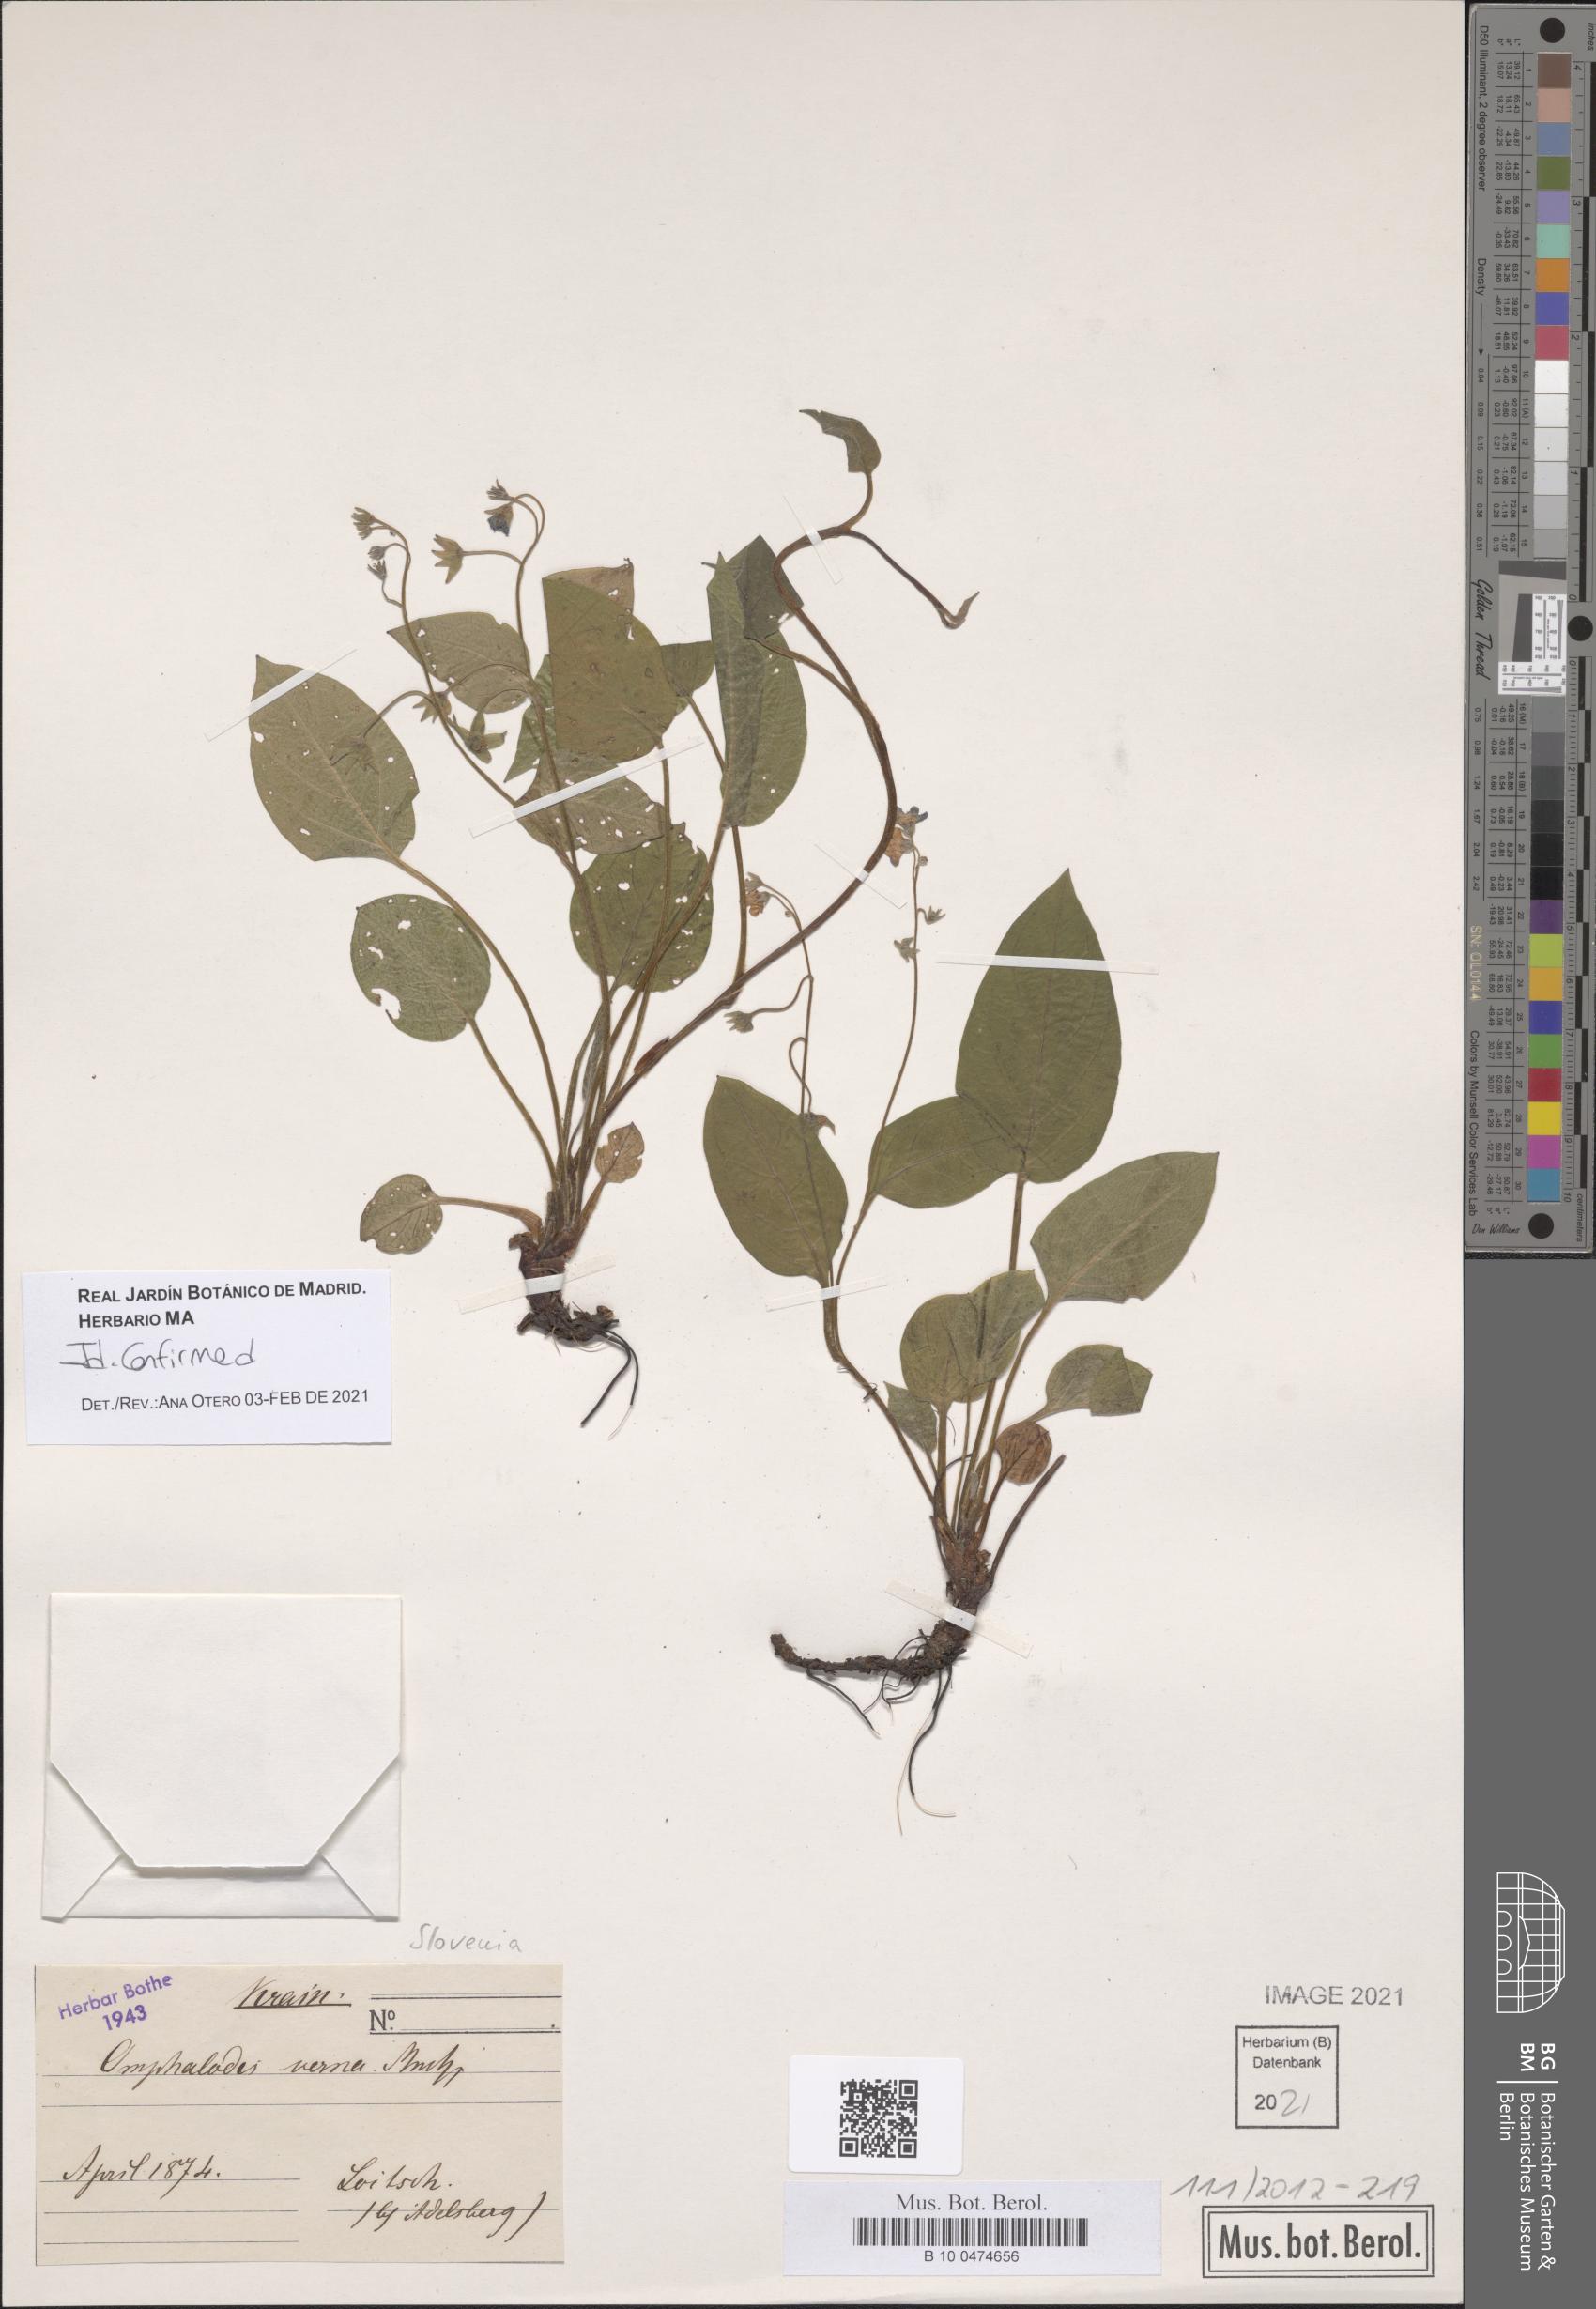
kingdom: Plantae
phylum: Tracheophyta
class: Magnoliopsida
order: Boraginales
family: Boraginaceae
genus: Omphalodes
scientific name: Omphalodes verna
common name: Blue-eyed-mary
